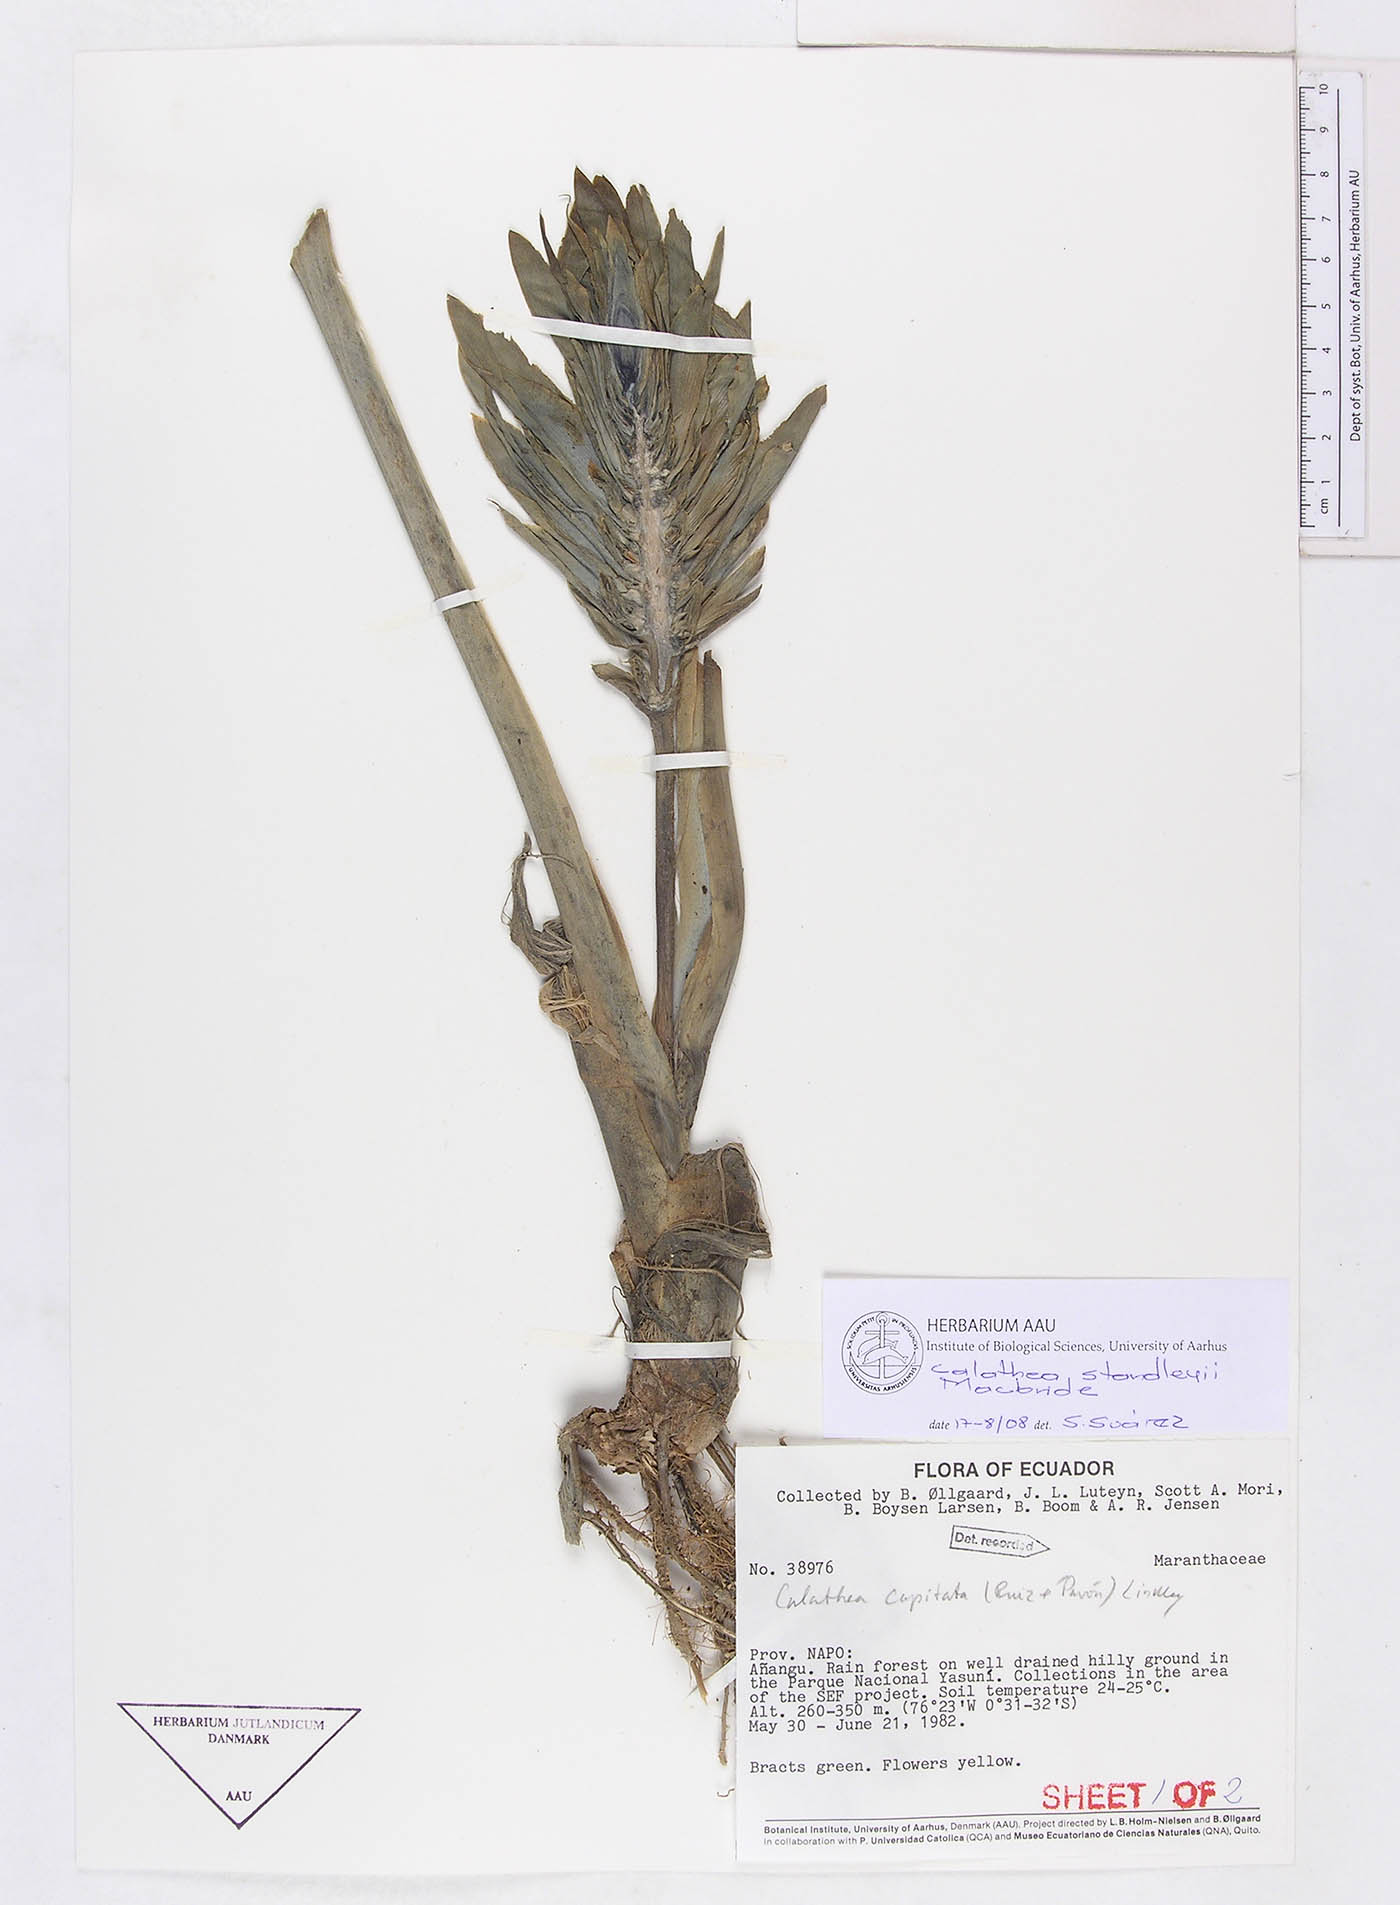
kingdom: Plantae
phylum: Tracheophyta
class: Liliopsida
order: Zingiberales
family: Marantaceae
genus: Goeppertia
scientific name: Goeppertia standleyi
